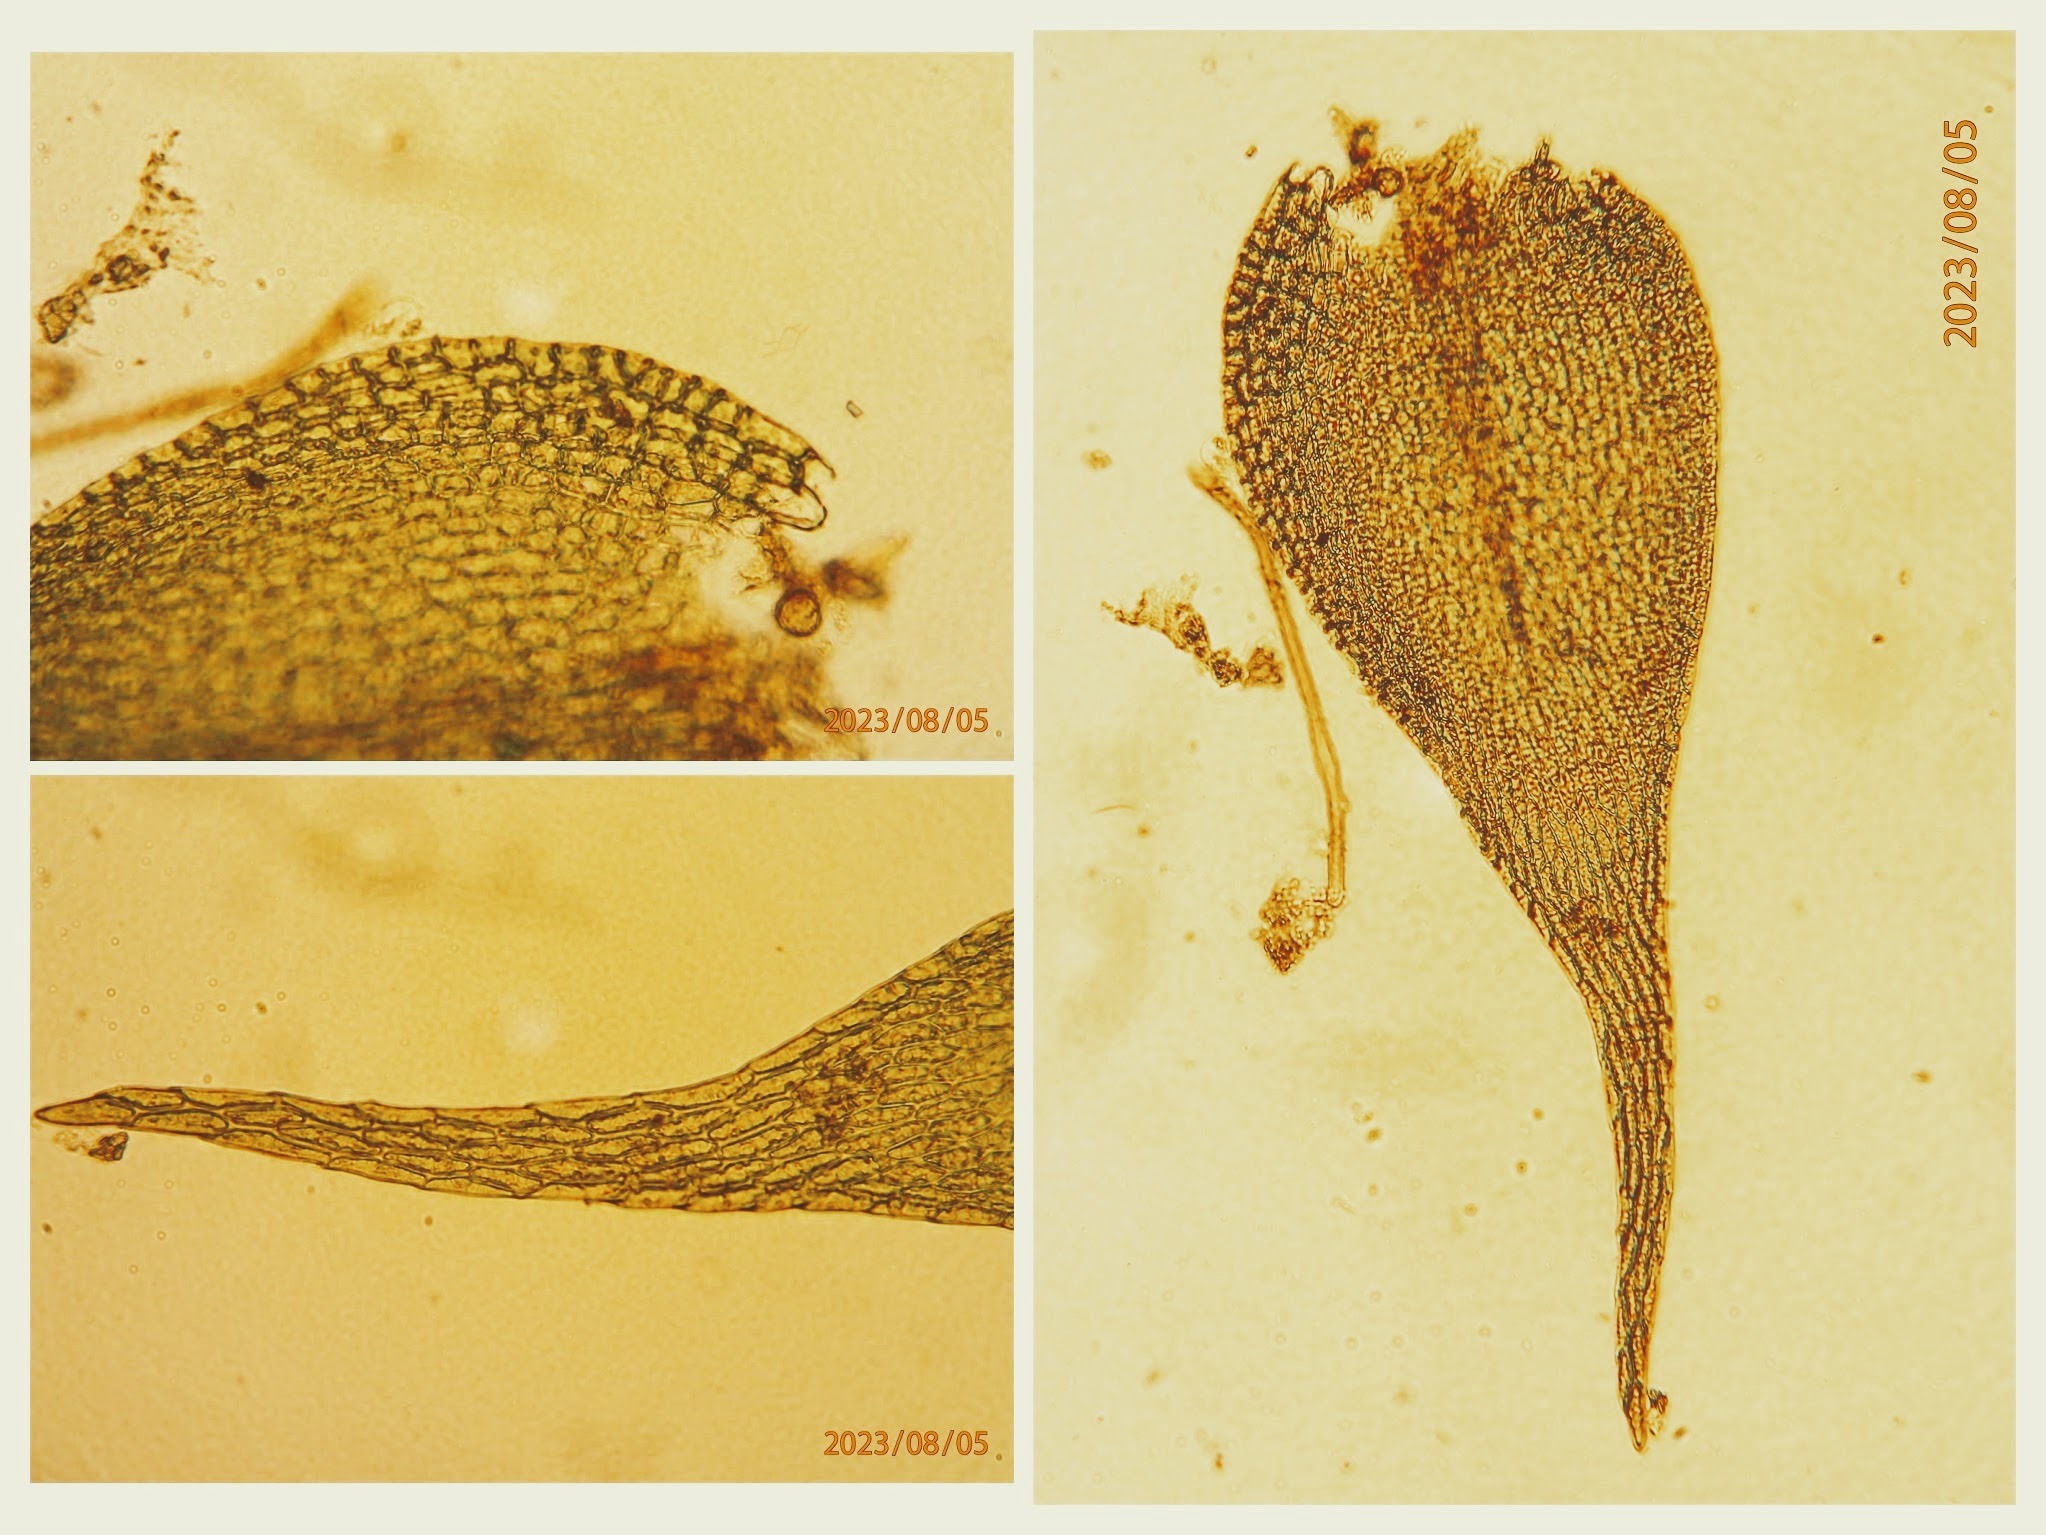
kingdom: Plantae
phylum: Bryophyta
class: Bryopsida
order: Hypnales
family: Amblystegiaceae
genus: Amblystegium
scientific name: Amblystegium serpens
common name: Almindelig krybmos
